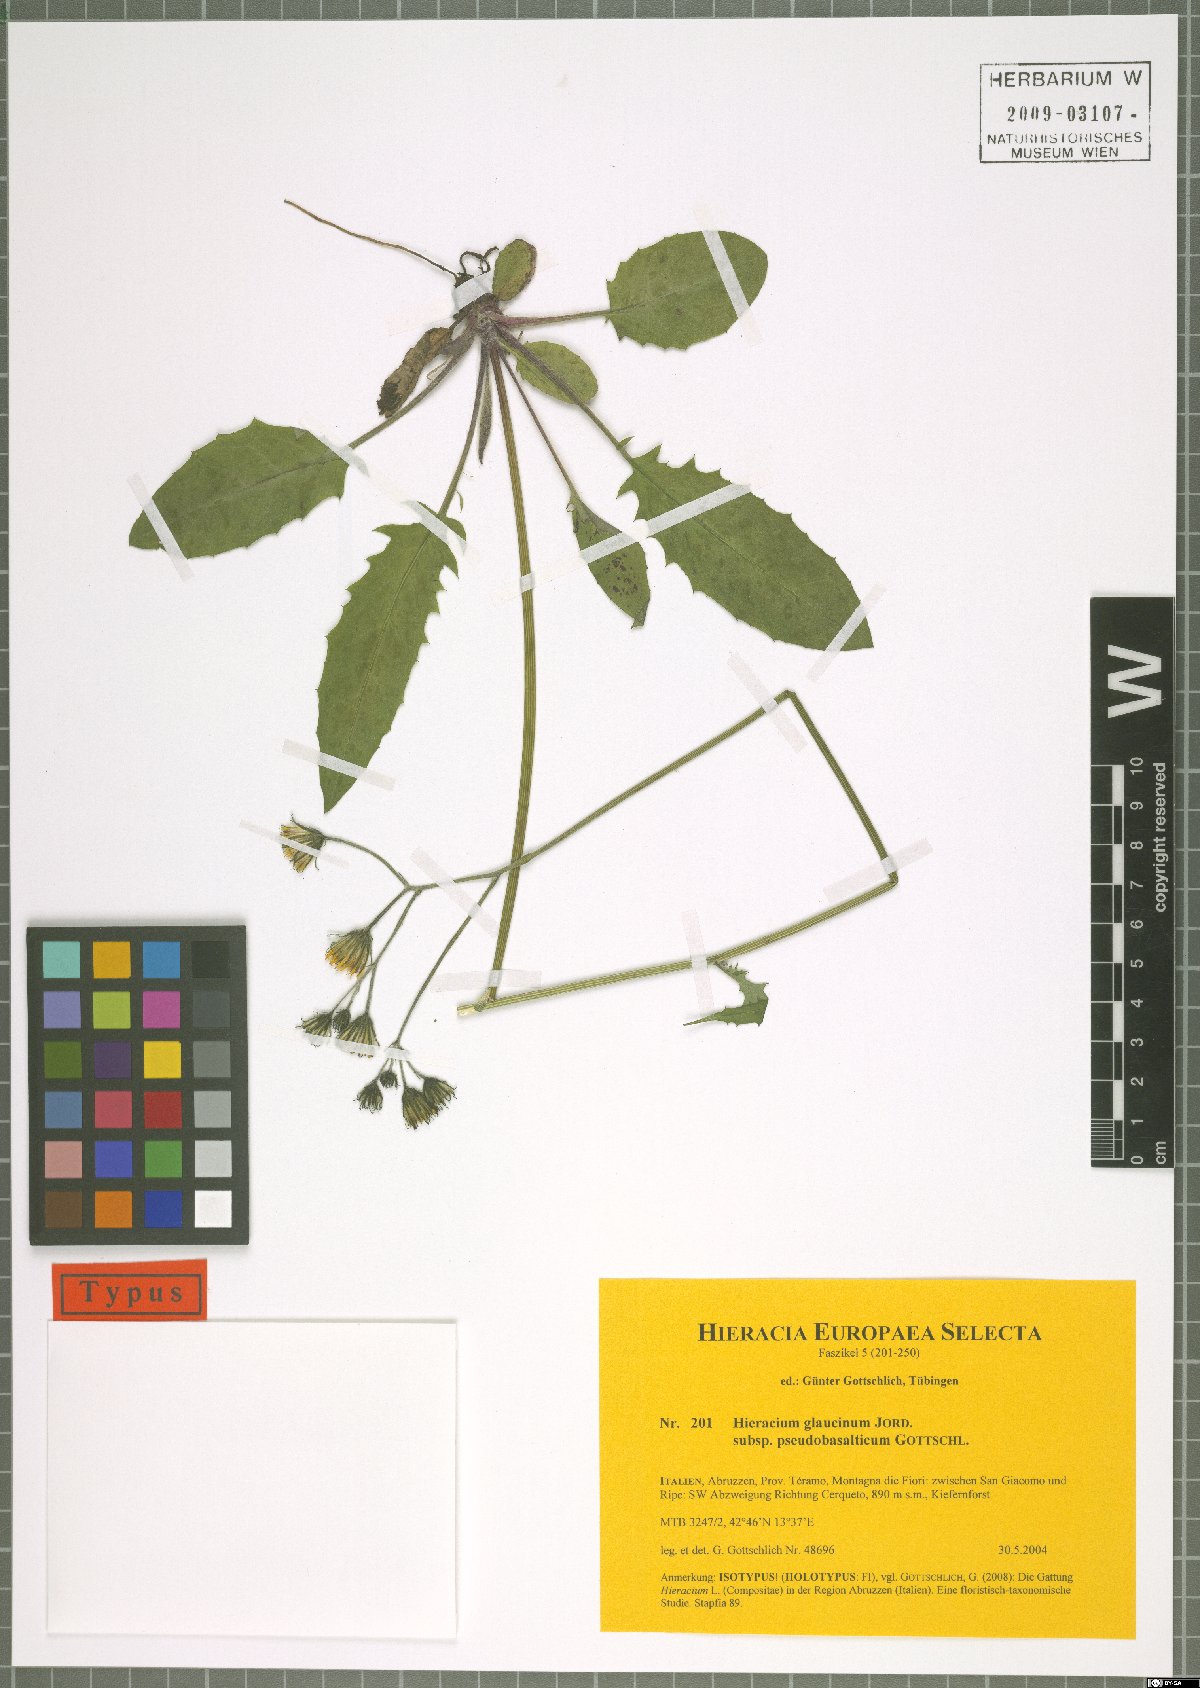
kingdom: Plantae
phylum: Tracheophyta
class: Magnoliopsida
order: Asterales
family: Asteraceae
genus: Hieracium
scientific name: Hieracium glaucinum
